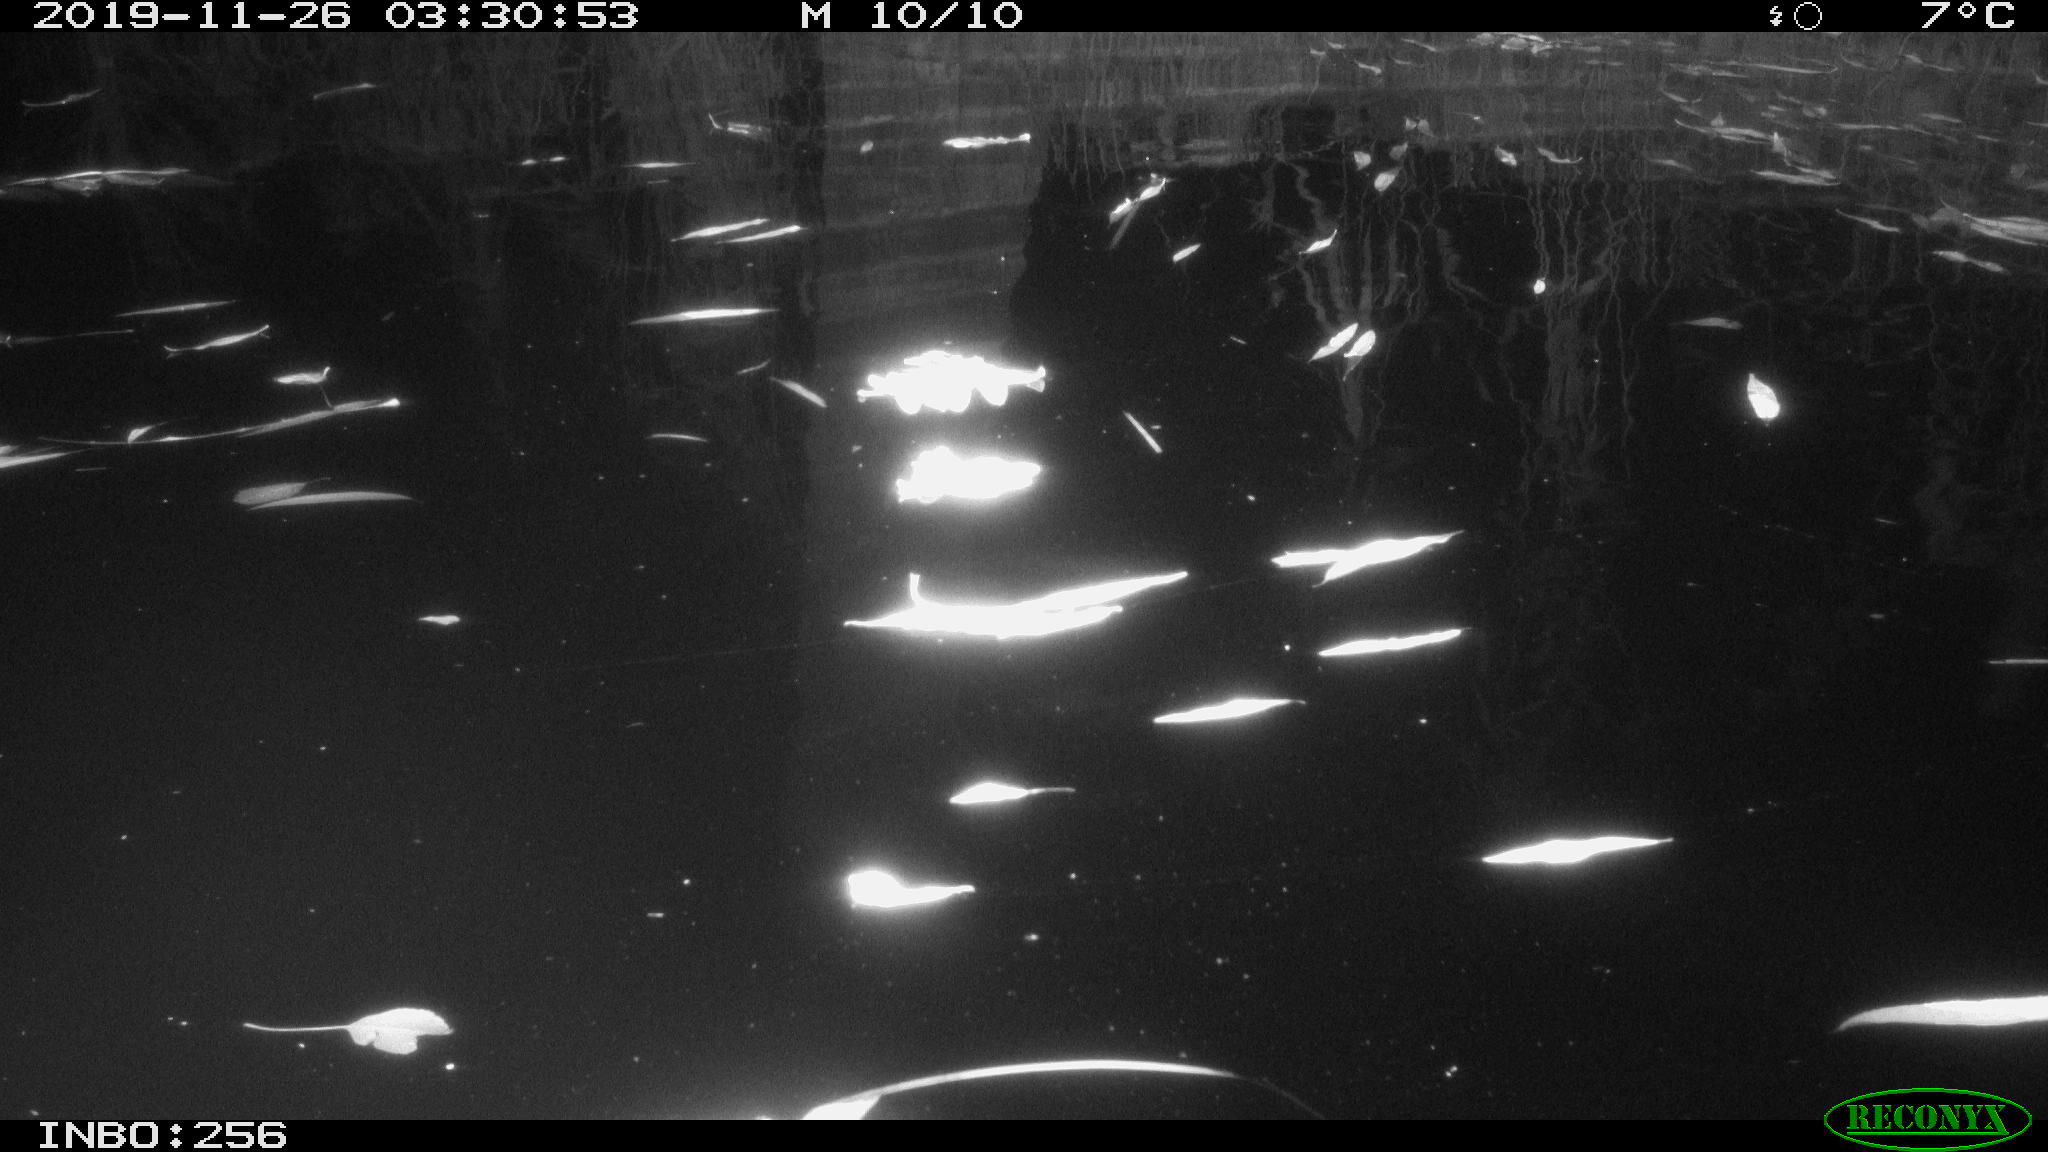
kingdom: Animalia
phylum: Chordata
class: Aves
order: Anseriformes
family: Anatidae
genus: Anas
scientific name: Anas platyrhynchos
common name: Mallard
